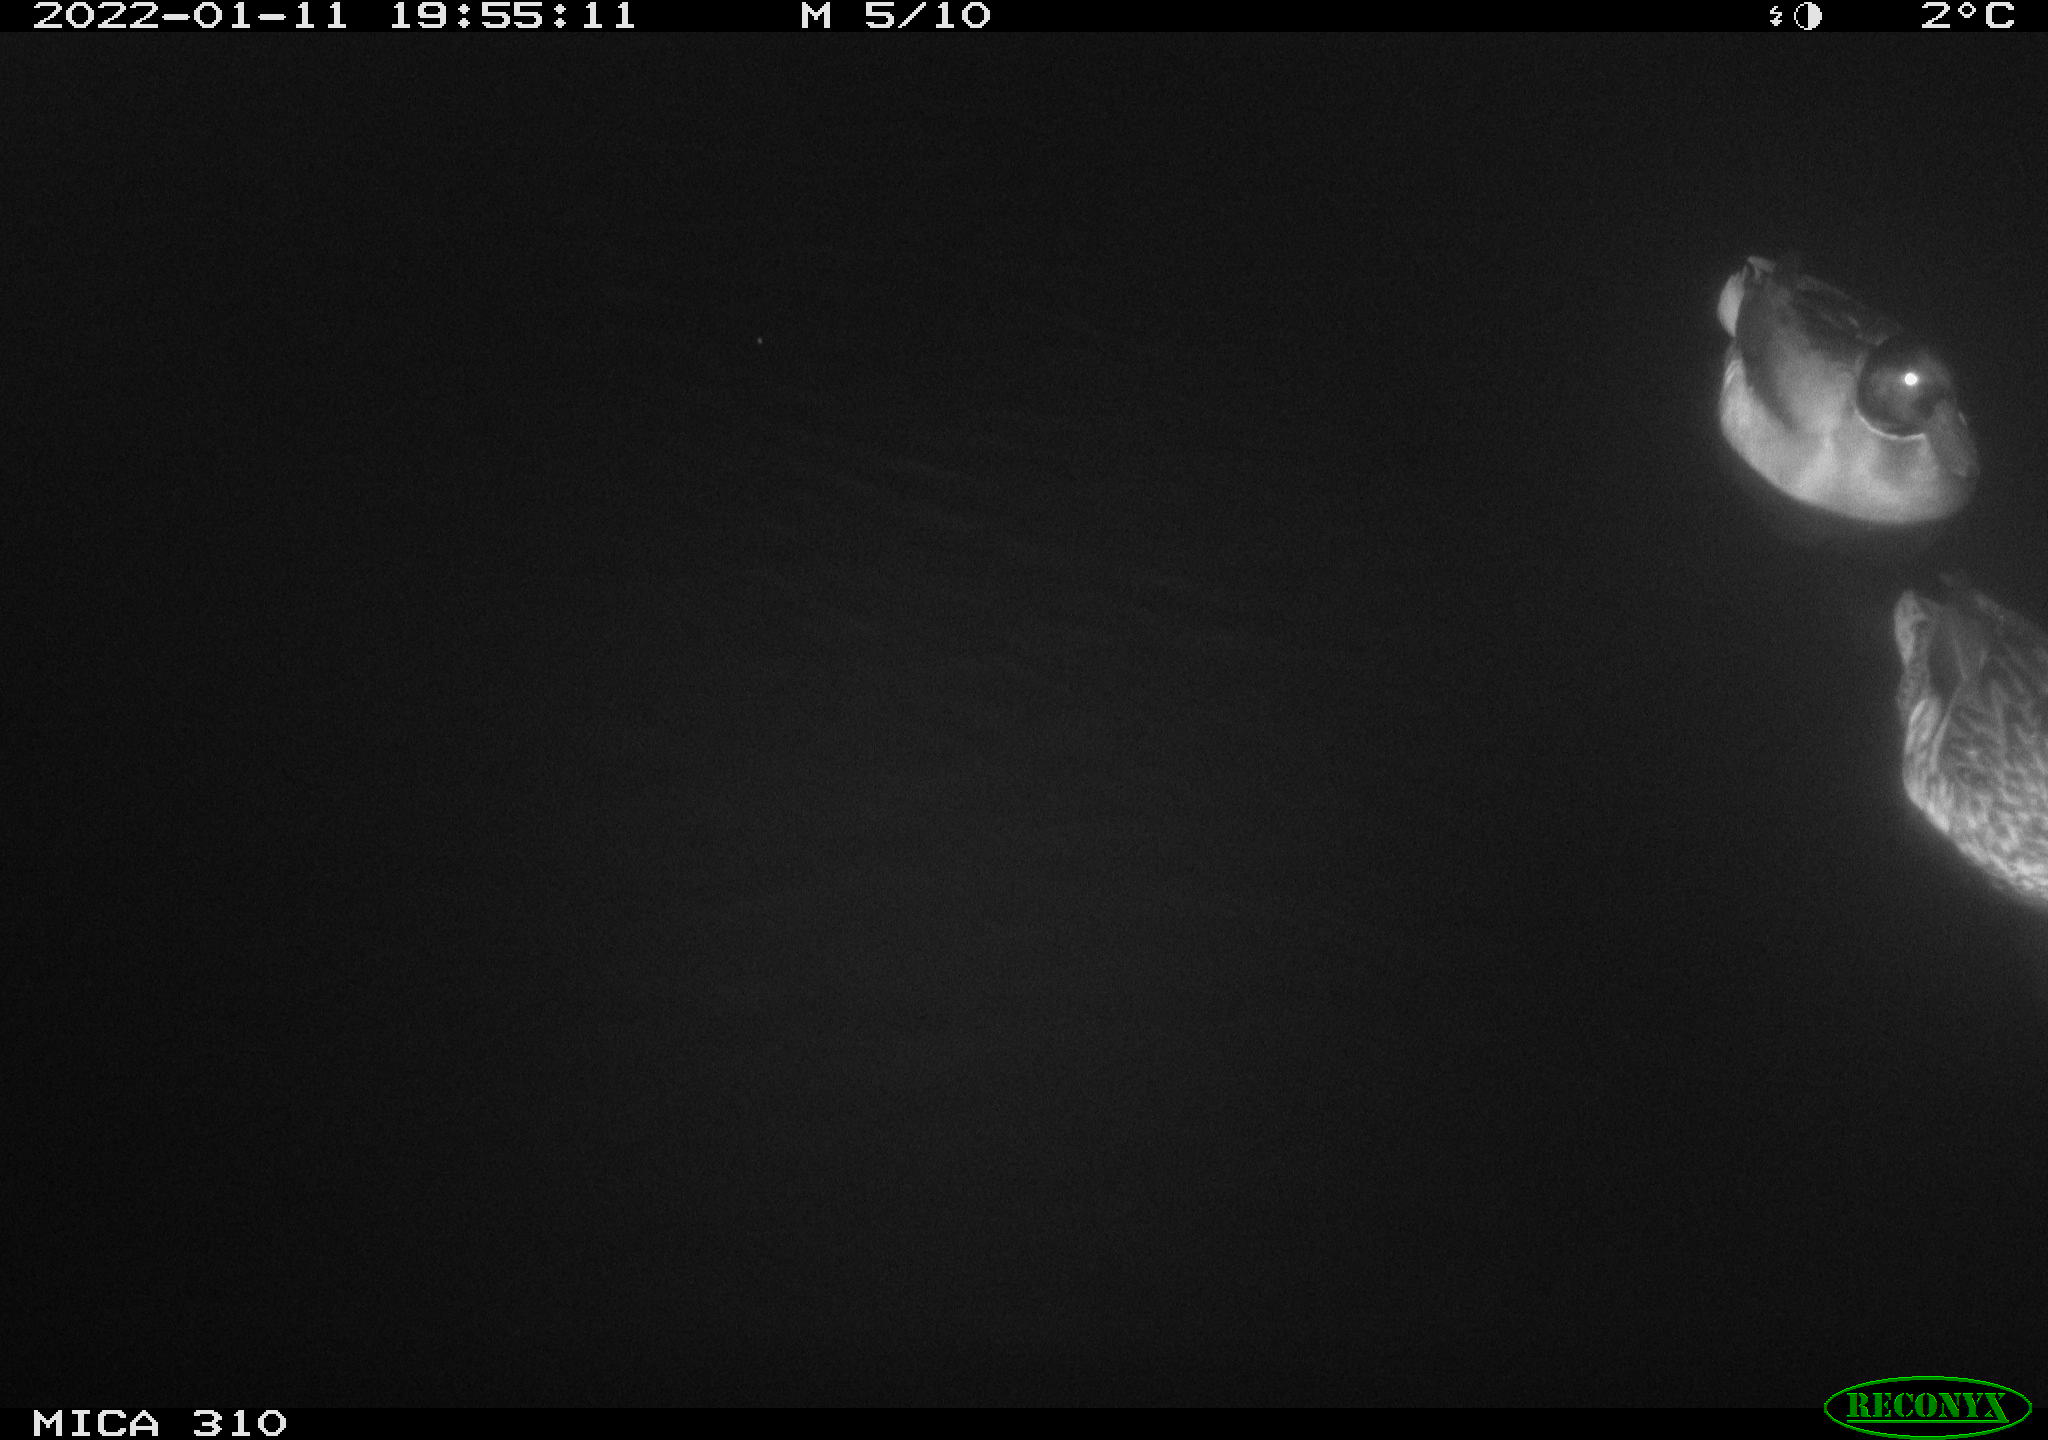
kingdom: Animalia
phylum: Chordata
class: Aves
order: Anseriformes
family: Anatidae
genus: Anas
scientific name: Anas
